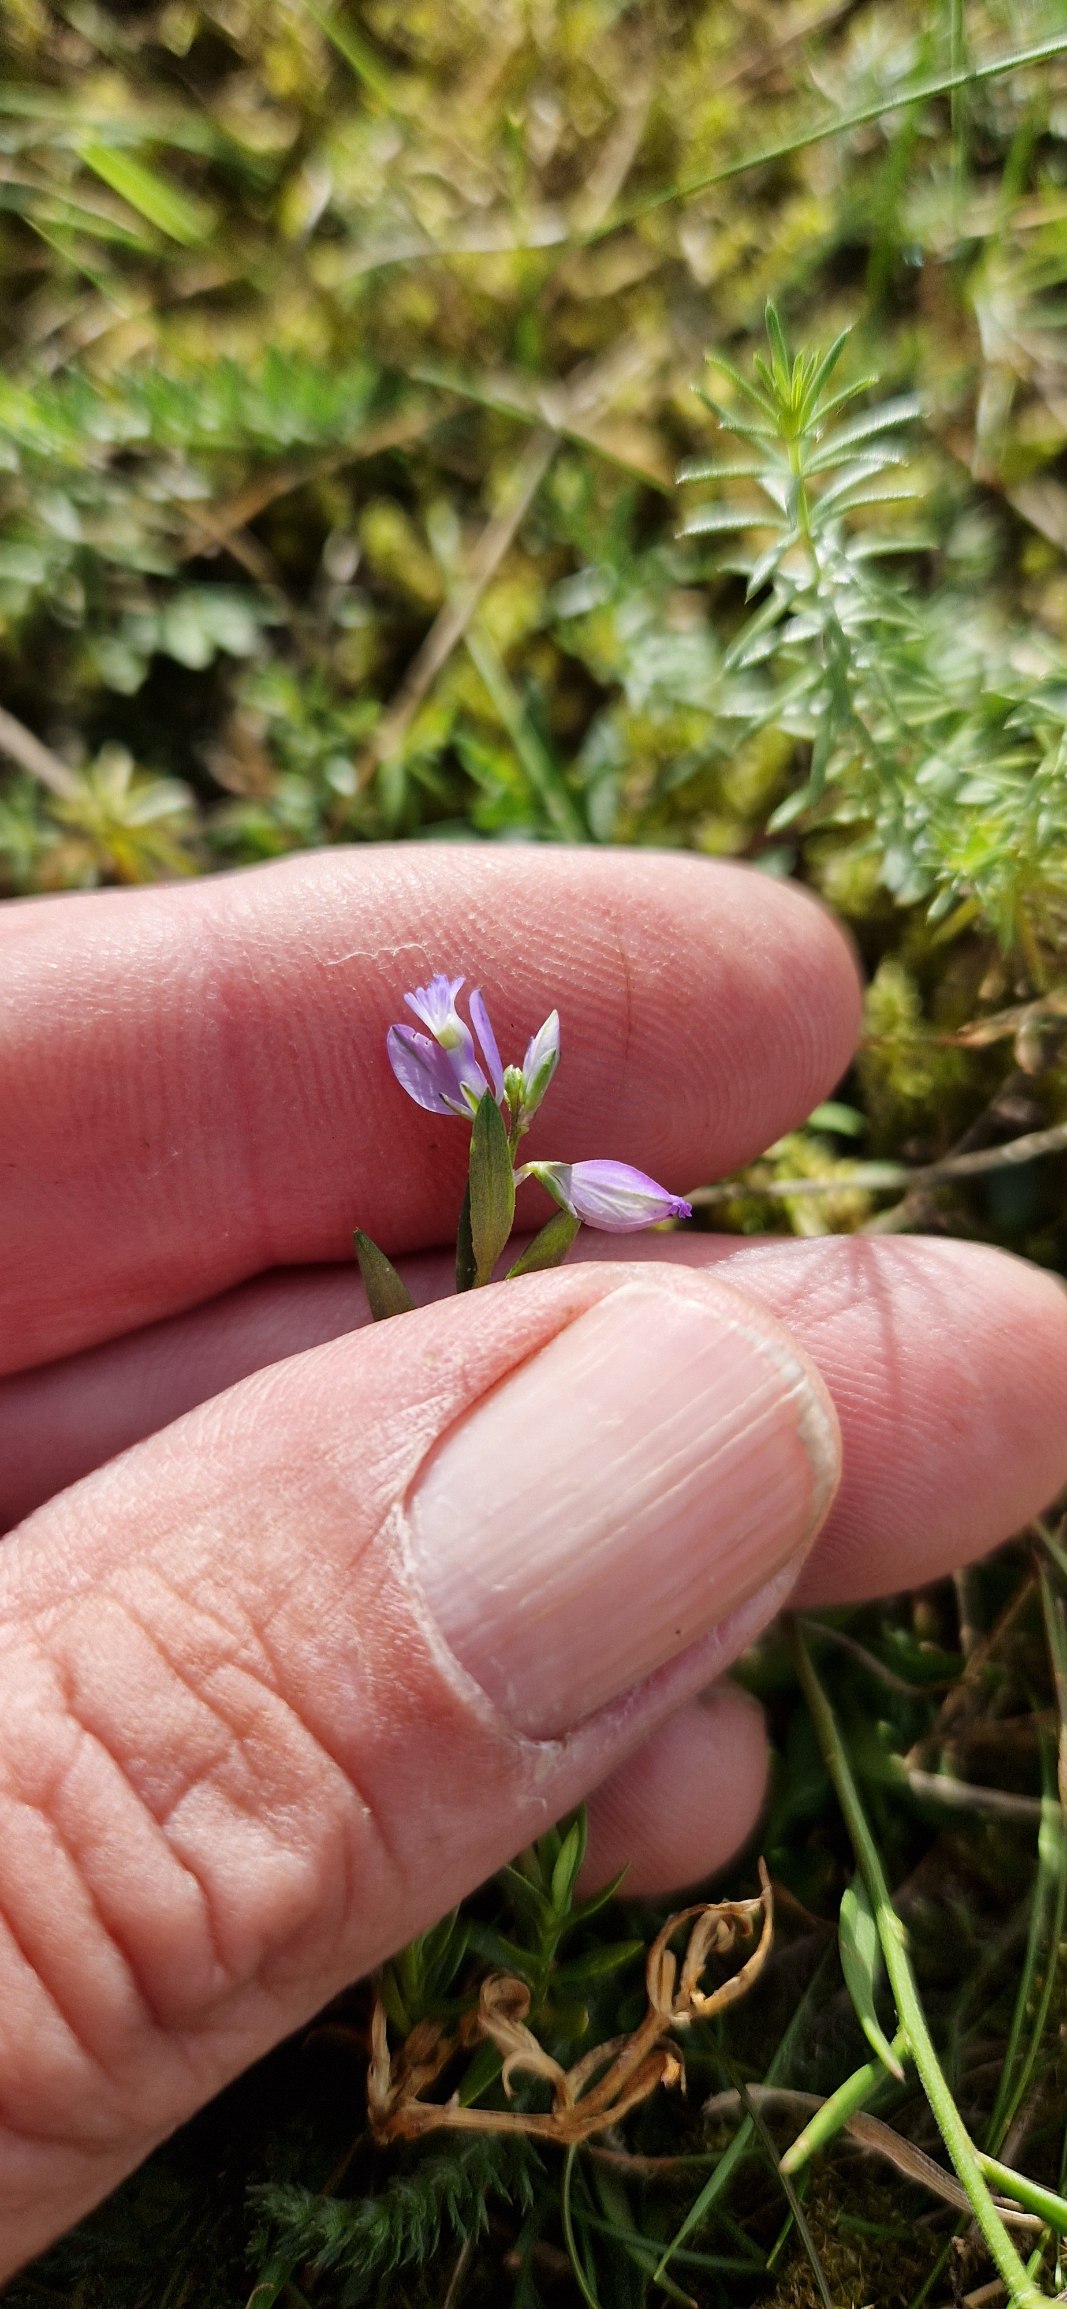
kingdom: Plantae
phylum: Tracheophyta
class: Magnoliopsida
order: Fabales
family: Polygalaceae
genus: Polygala
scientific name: Polygala vulgaris
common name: Almindelig mælkeurt
